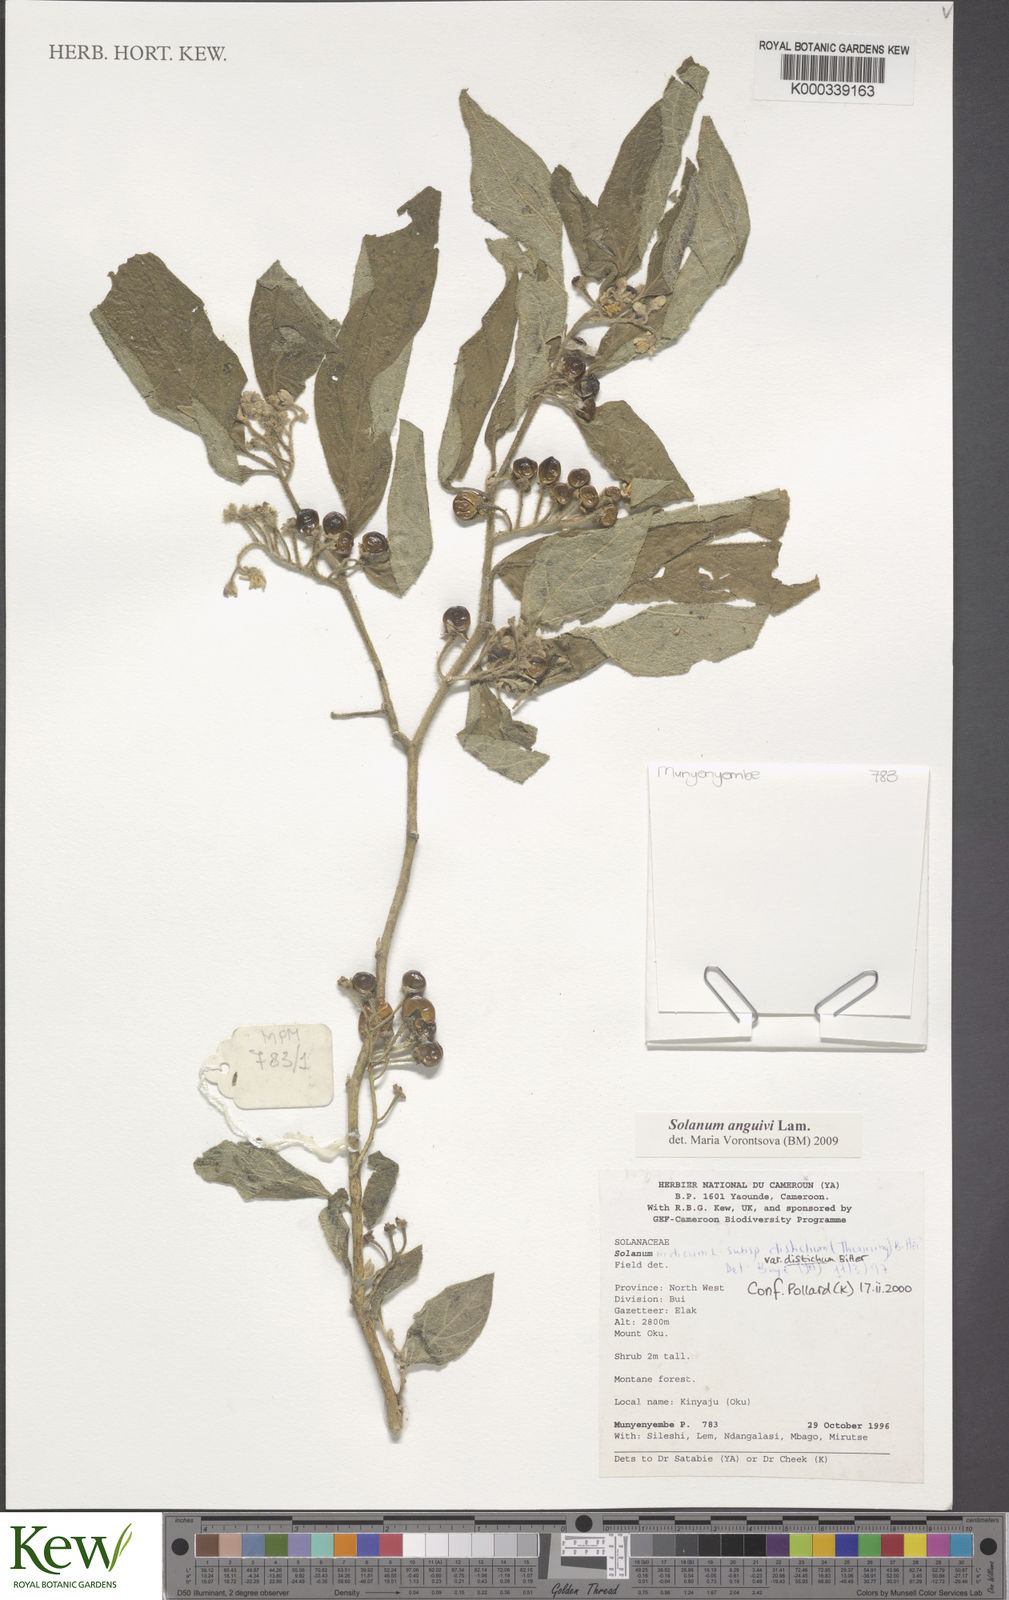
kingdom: Plantae
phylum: Tracheophyta
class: Magnoliopsida
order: Solanales
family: Solanaceae
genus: Solanum
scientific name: Solanum anguivi
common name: Forest bitterberry
